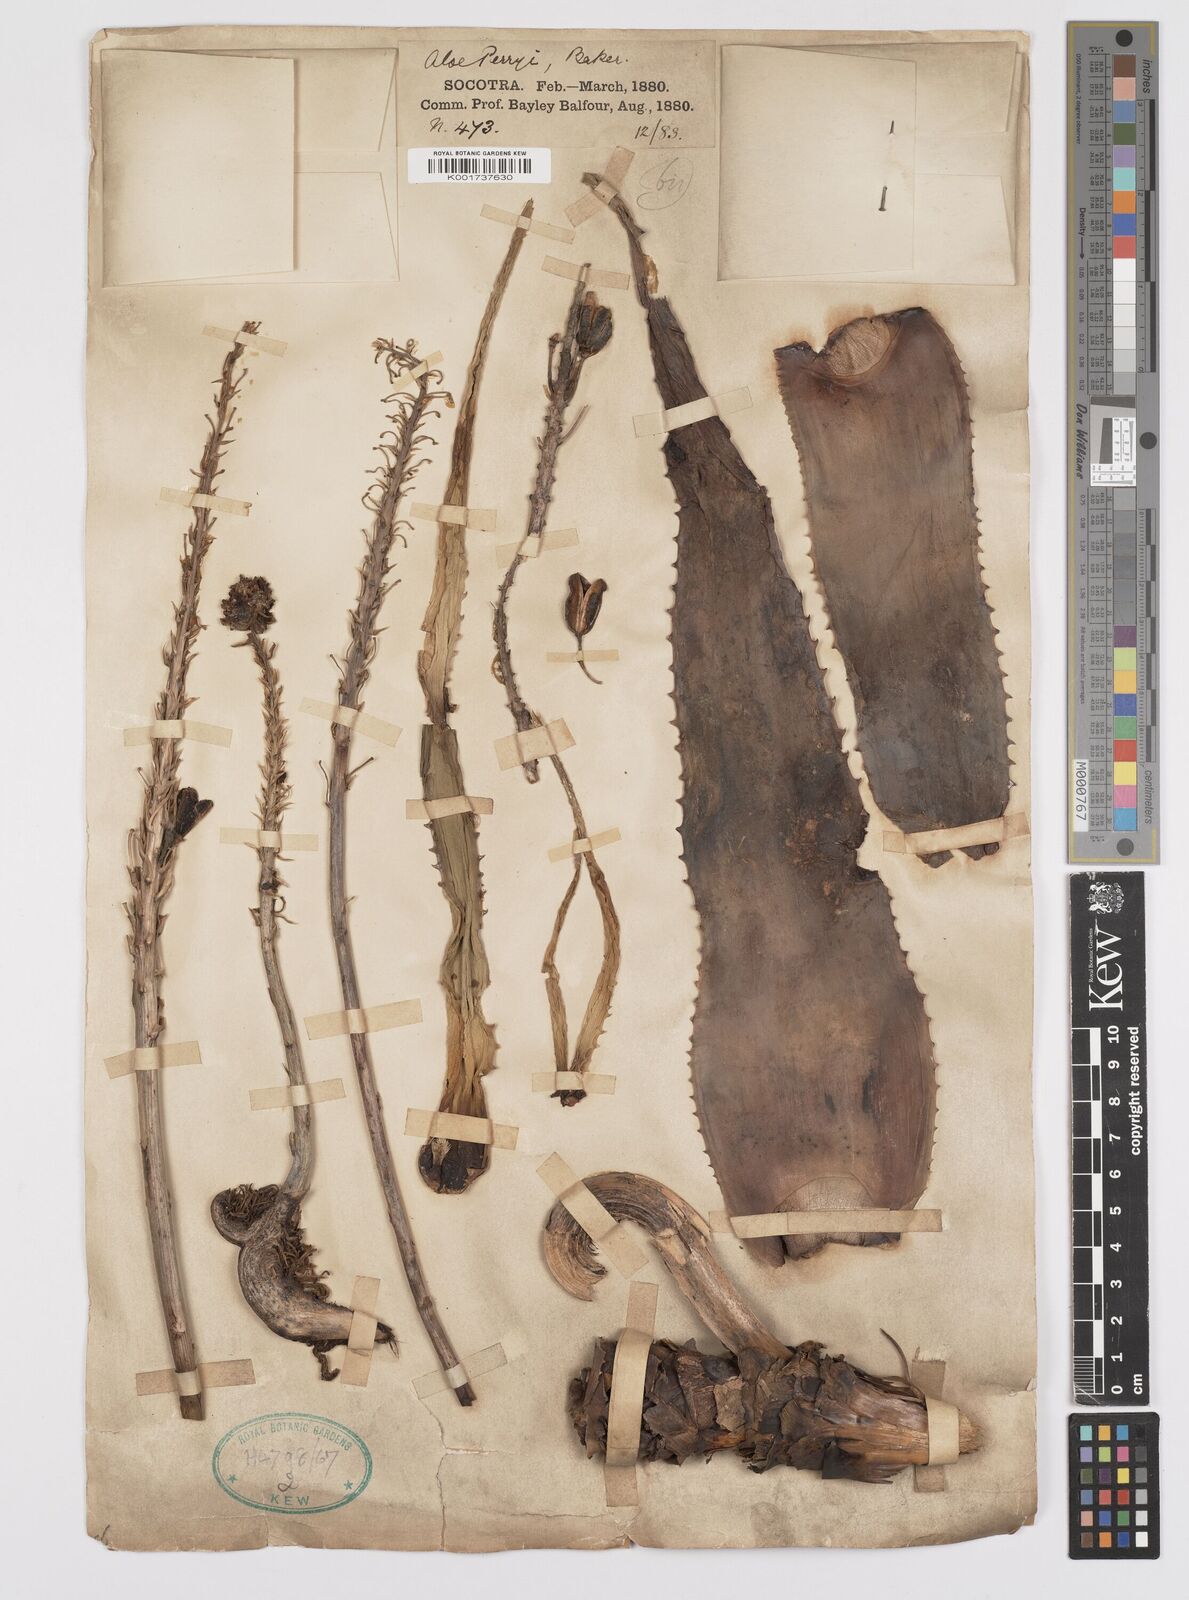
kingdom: Plantae
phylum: Tracheophyta
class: Liliopsida
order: Asparagales
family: Asphodelaceae
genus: Aloe
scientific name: Aloe perryi
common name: Socotrine aloe
